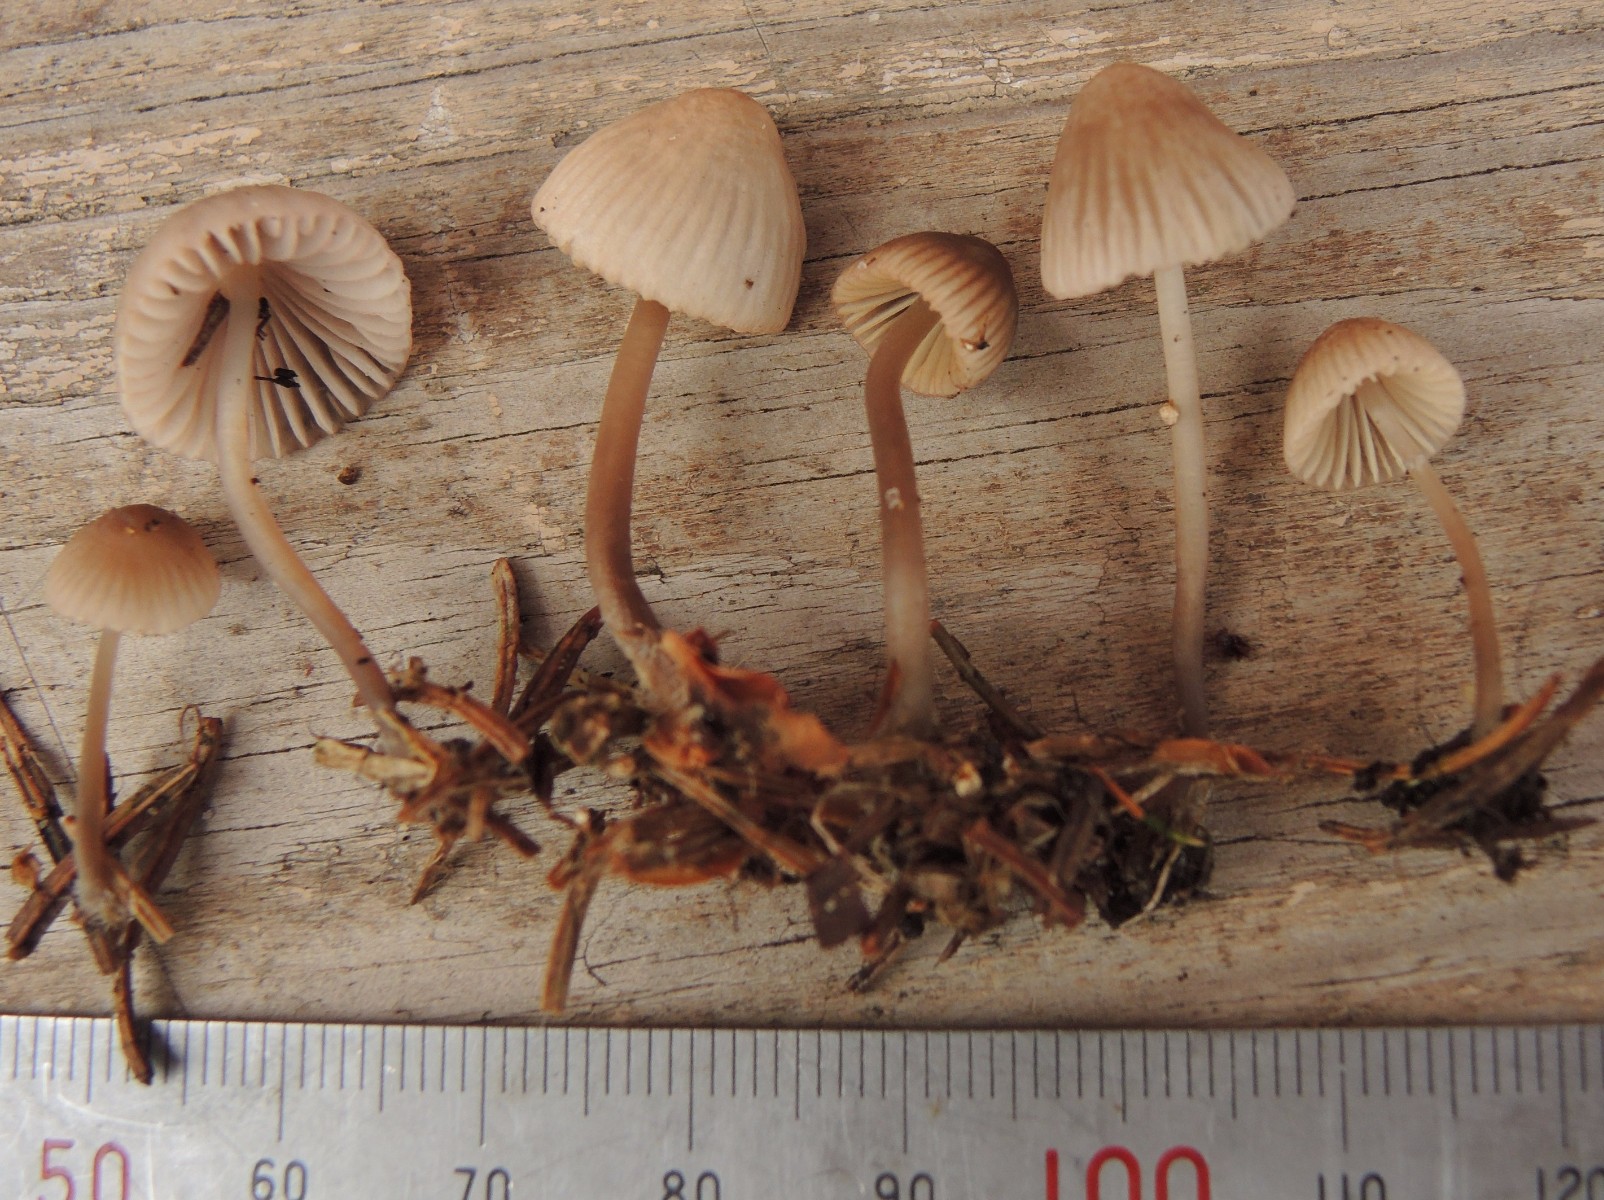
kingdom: Fungi
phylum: Basidiomycota
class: Agaricomycetes
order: Agaricales
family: Mycenaceae
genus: Mycena
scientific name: Mycena capillaripes
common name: nåle-huesvamp
